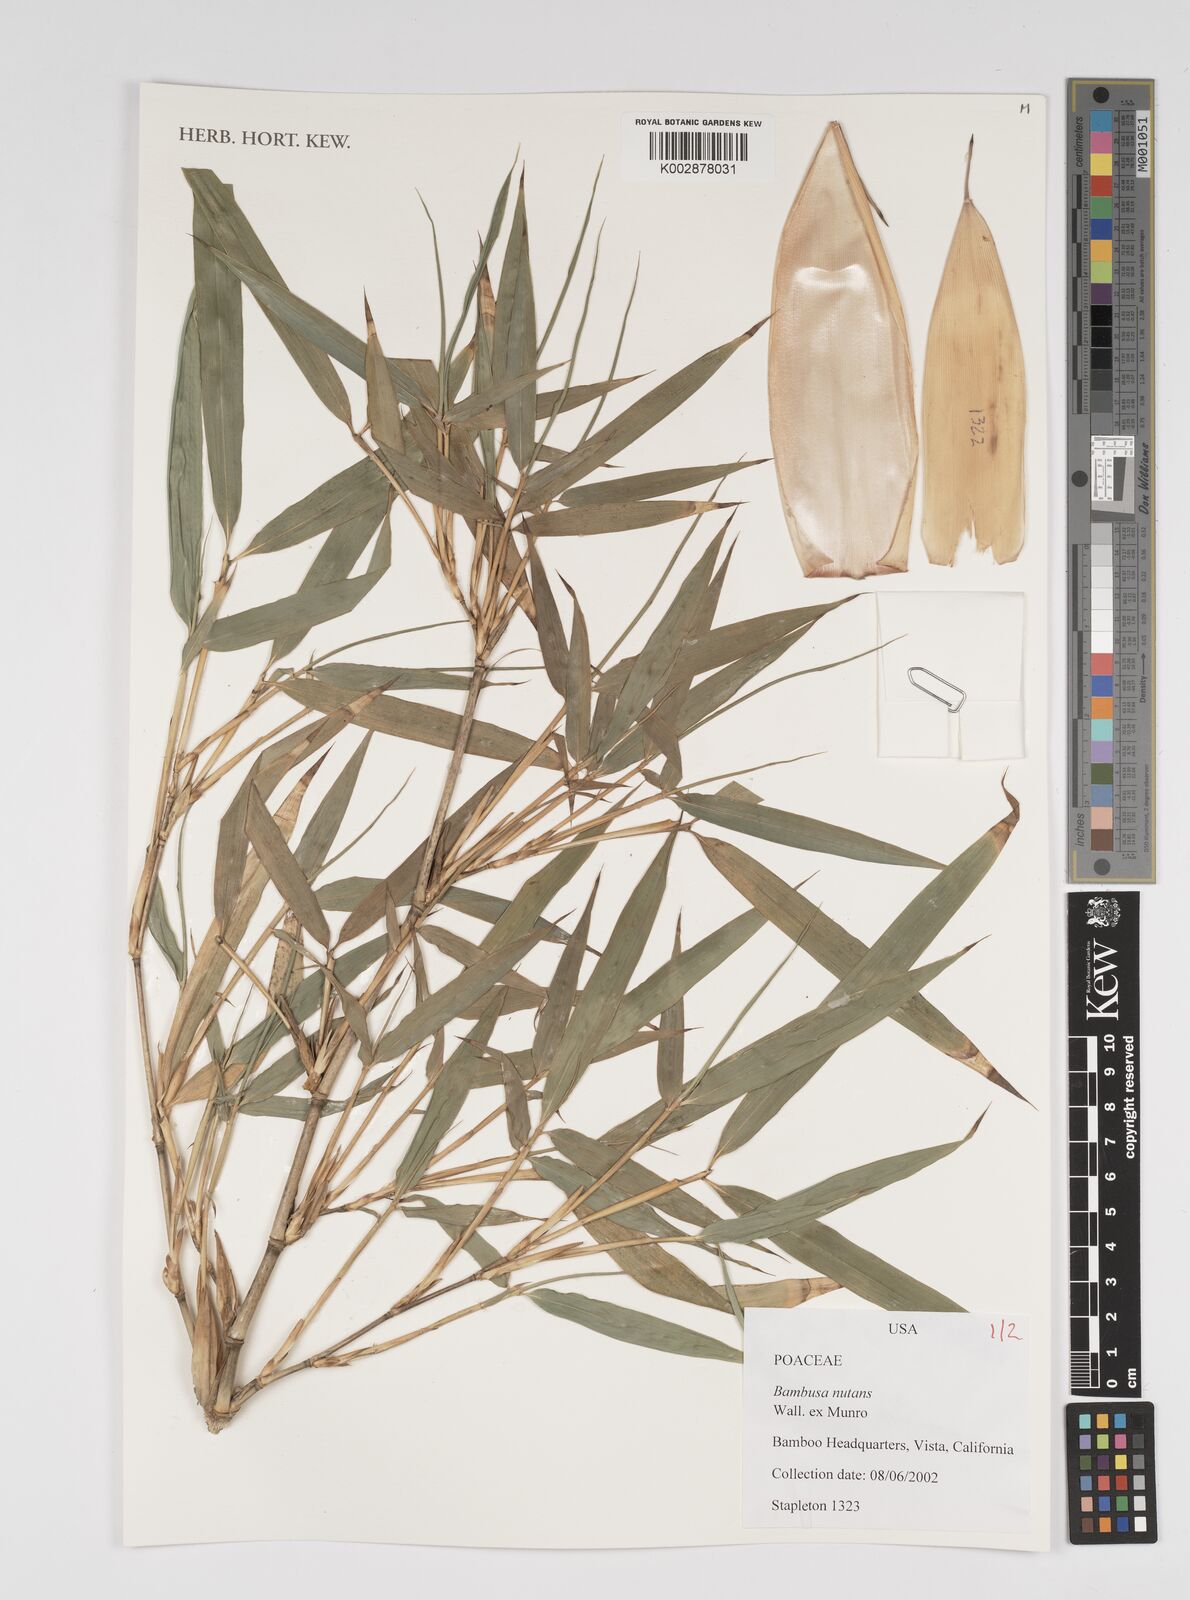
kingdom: Plantae
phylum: Tracheophyta
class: Liliopsida
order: Poales
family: Poaceae
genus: Bambusa
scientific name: Bambusa nutans
